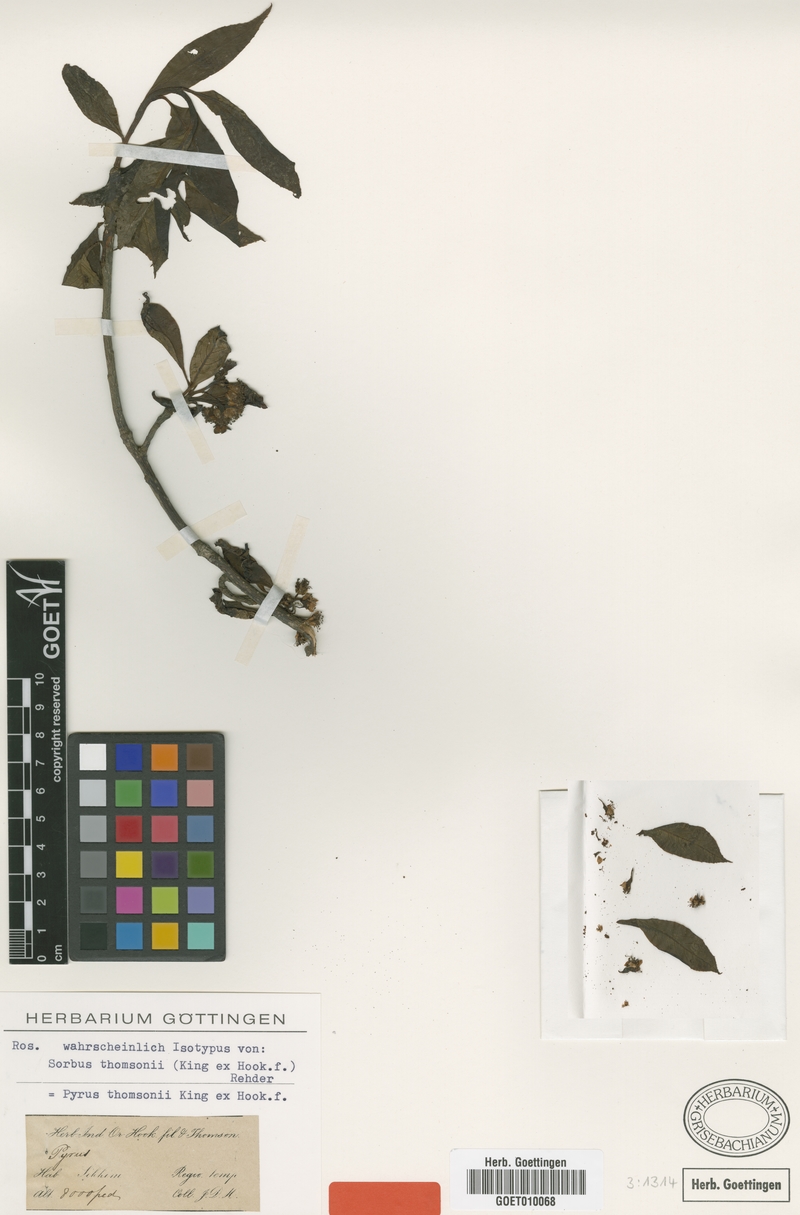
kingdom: Plantae
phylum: Tracheophyta
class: Magnoliopsida
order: Rosales
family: Rosaceae
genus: Sorbus
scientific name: Sorbus thomsonii
